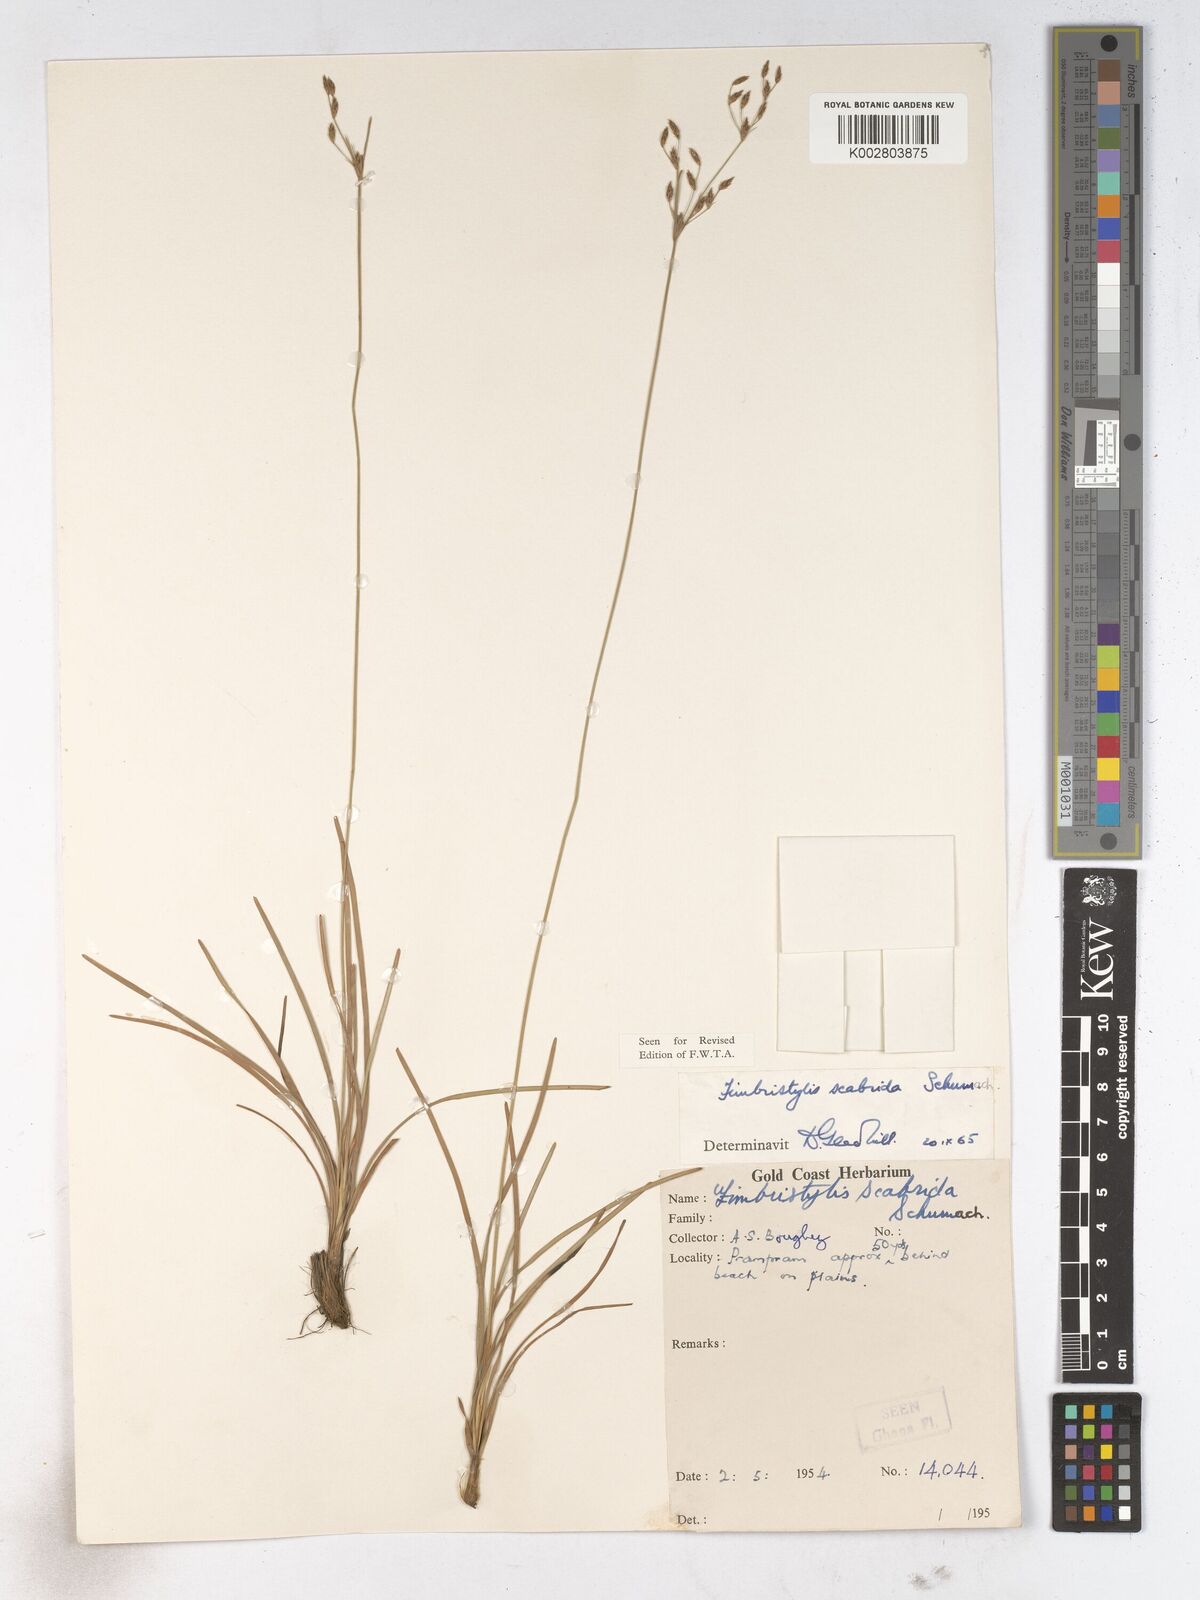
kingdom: Plantae
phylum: Tracheophyta
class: Liliopsida
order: Poales
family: Cyperaceae
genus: Fimbristylis
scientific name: Fimbristylis scabrida
